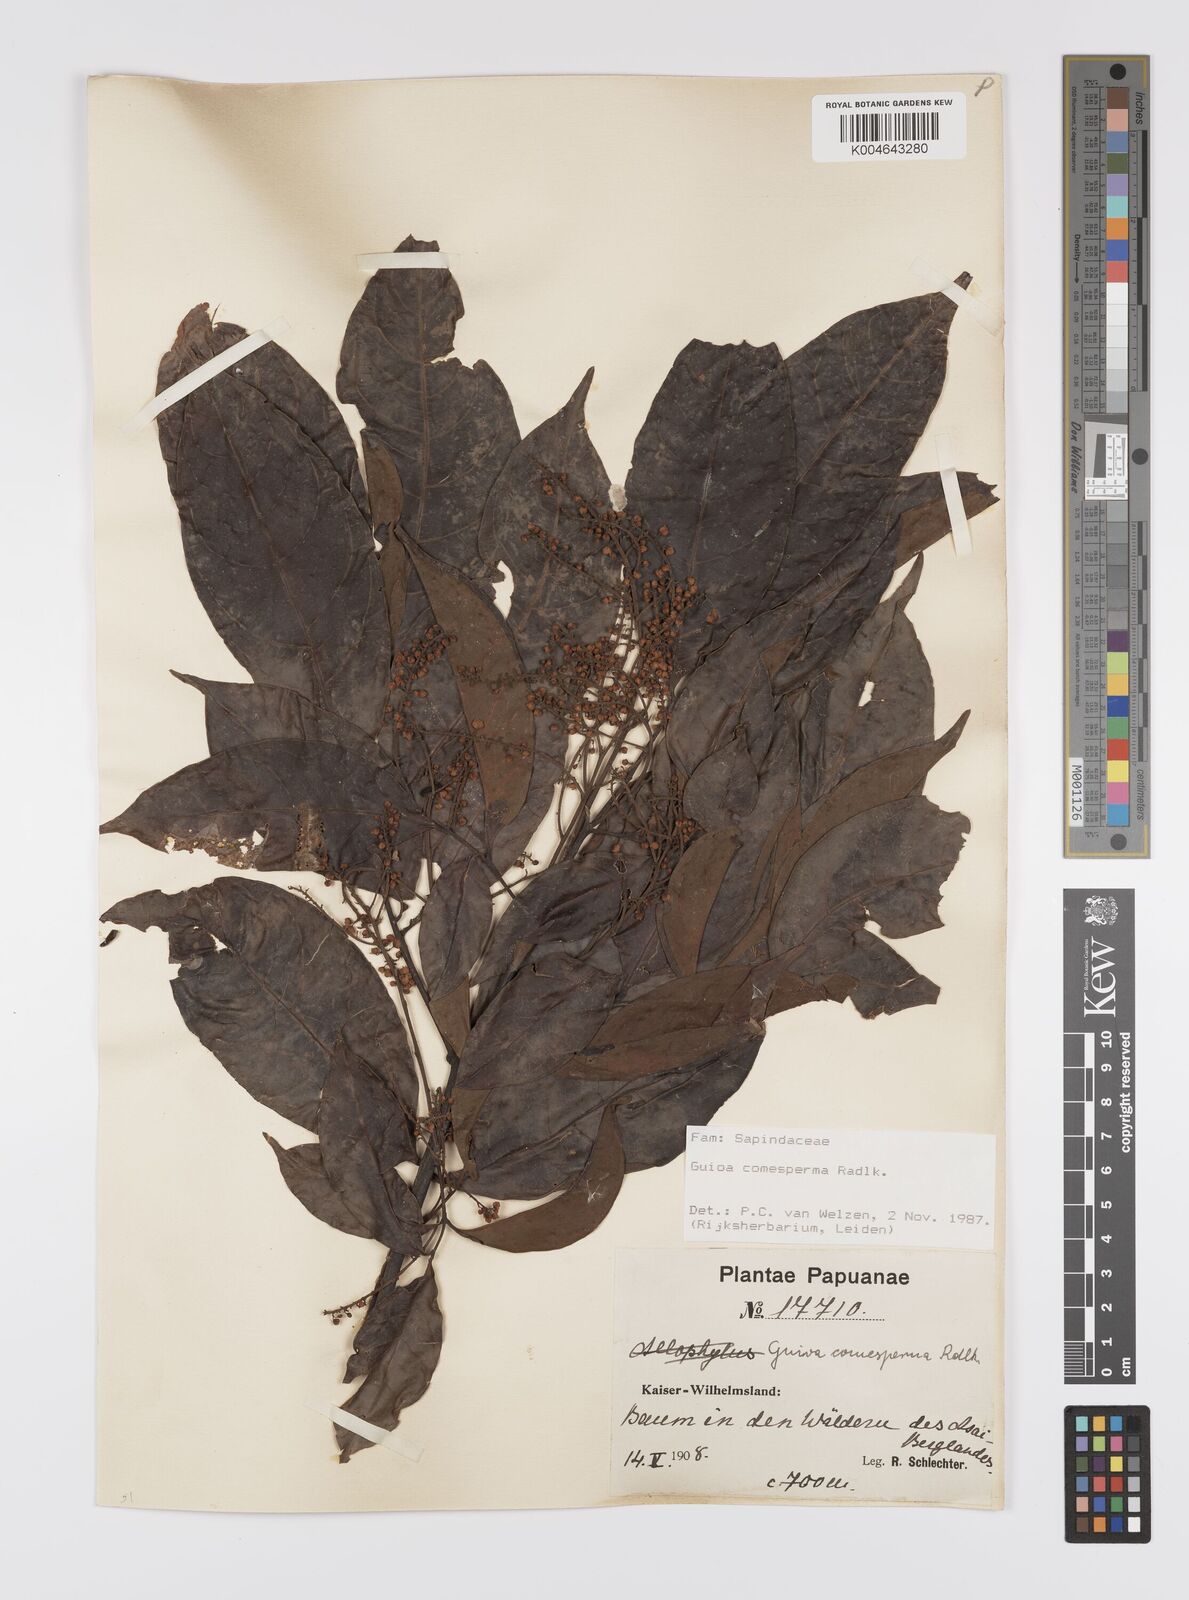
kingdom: Plantae
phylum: Tracheophyta
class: Magnoliopsida
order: Sapindales
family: Sapindaceae
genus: Guioa
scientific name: Guioa comesperma
